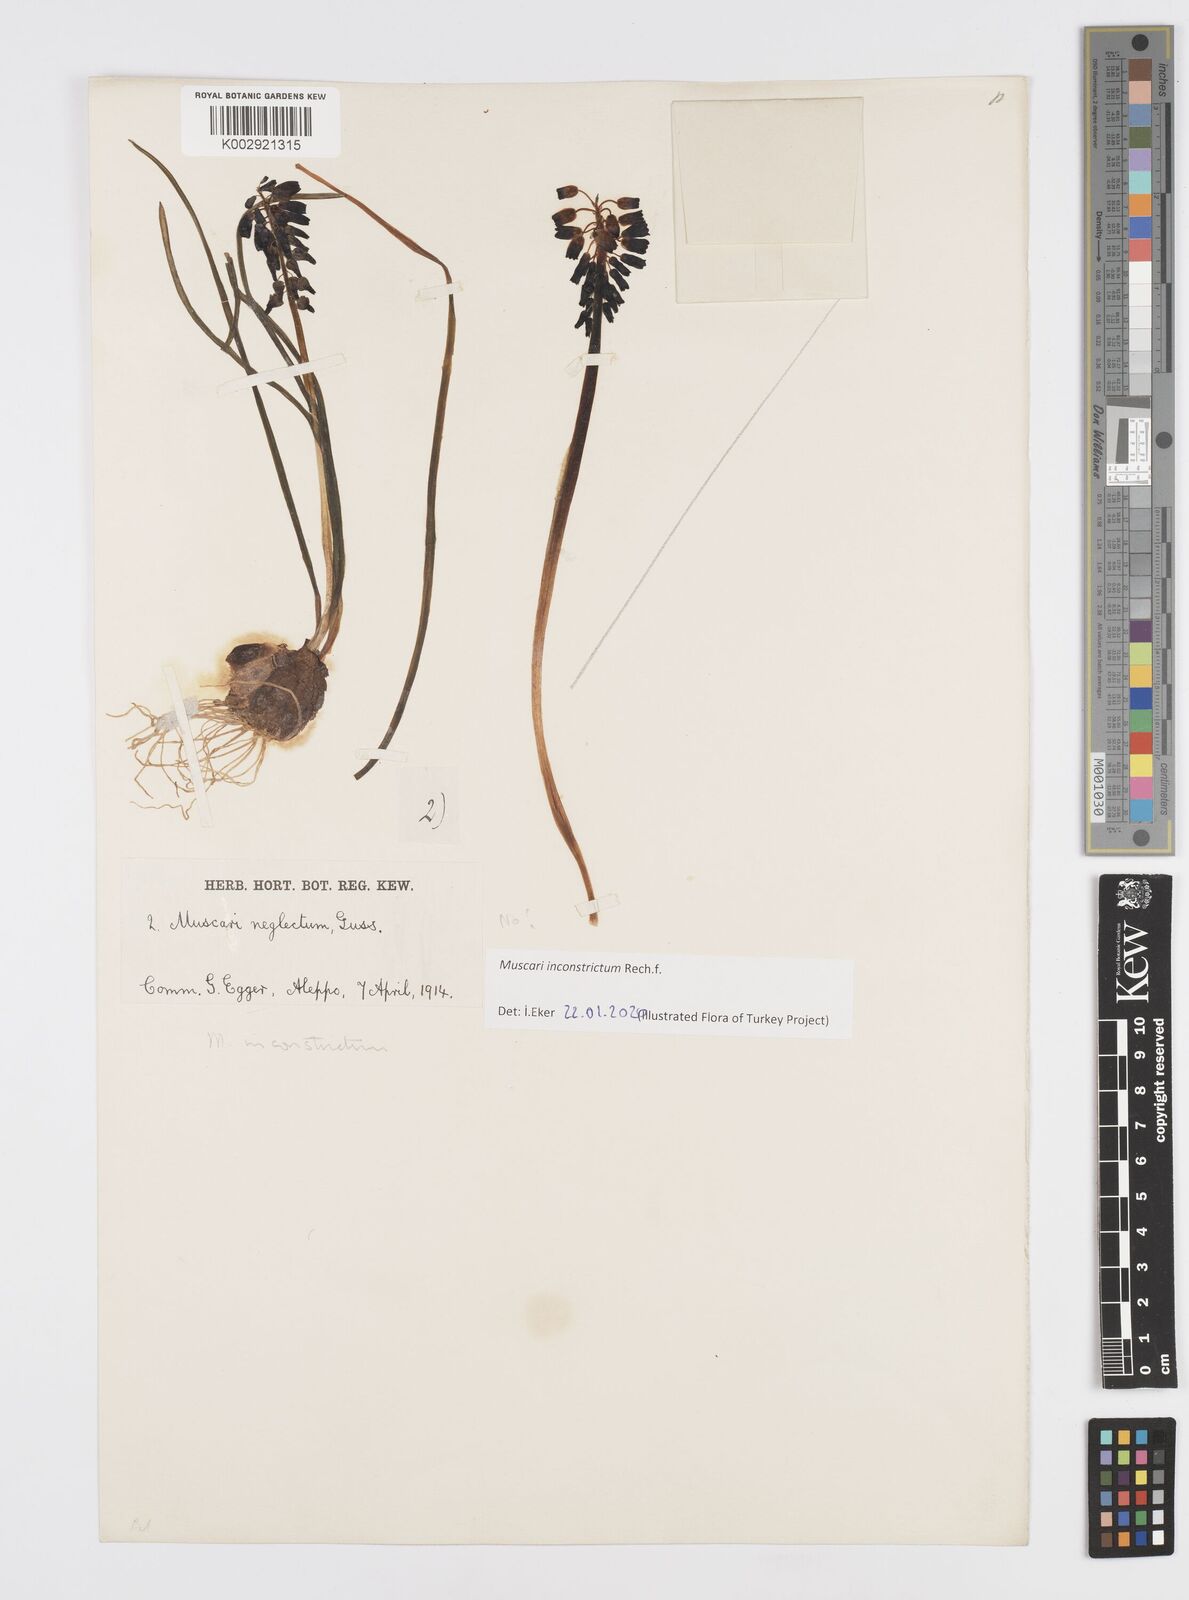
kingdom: Plantae
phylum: Tracheophyta
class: Liliopsida
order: Asparagales
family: Asparagaceae
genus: Muscari
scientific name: Muscari inconstrictum
